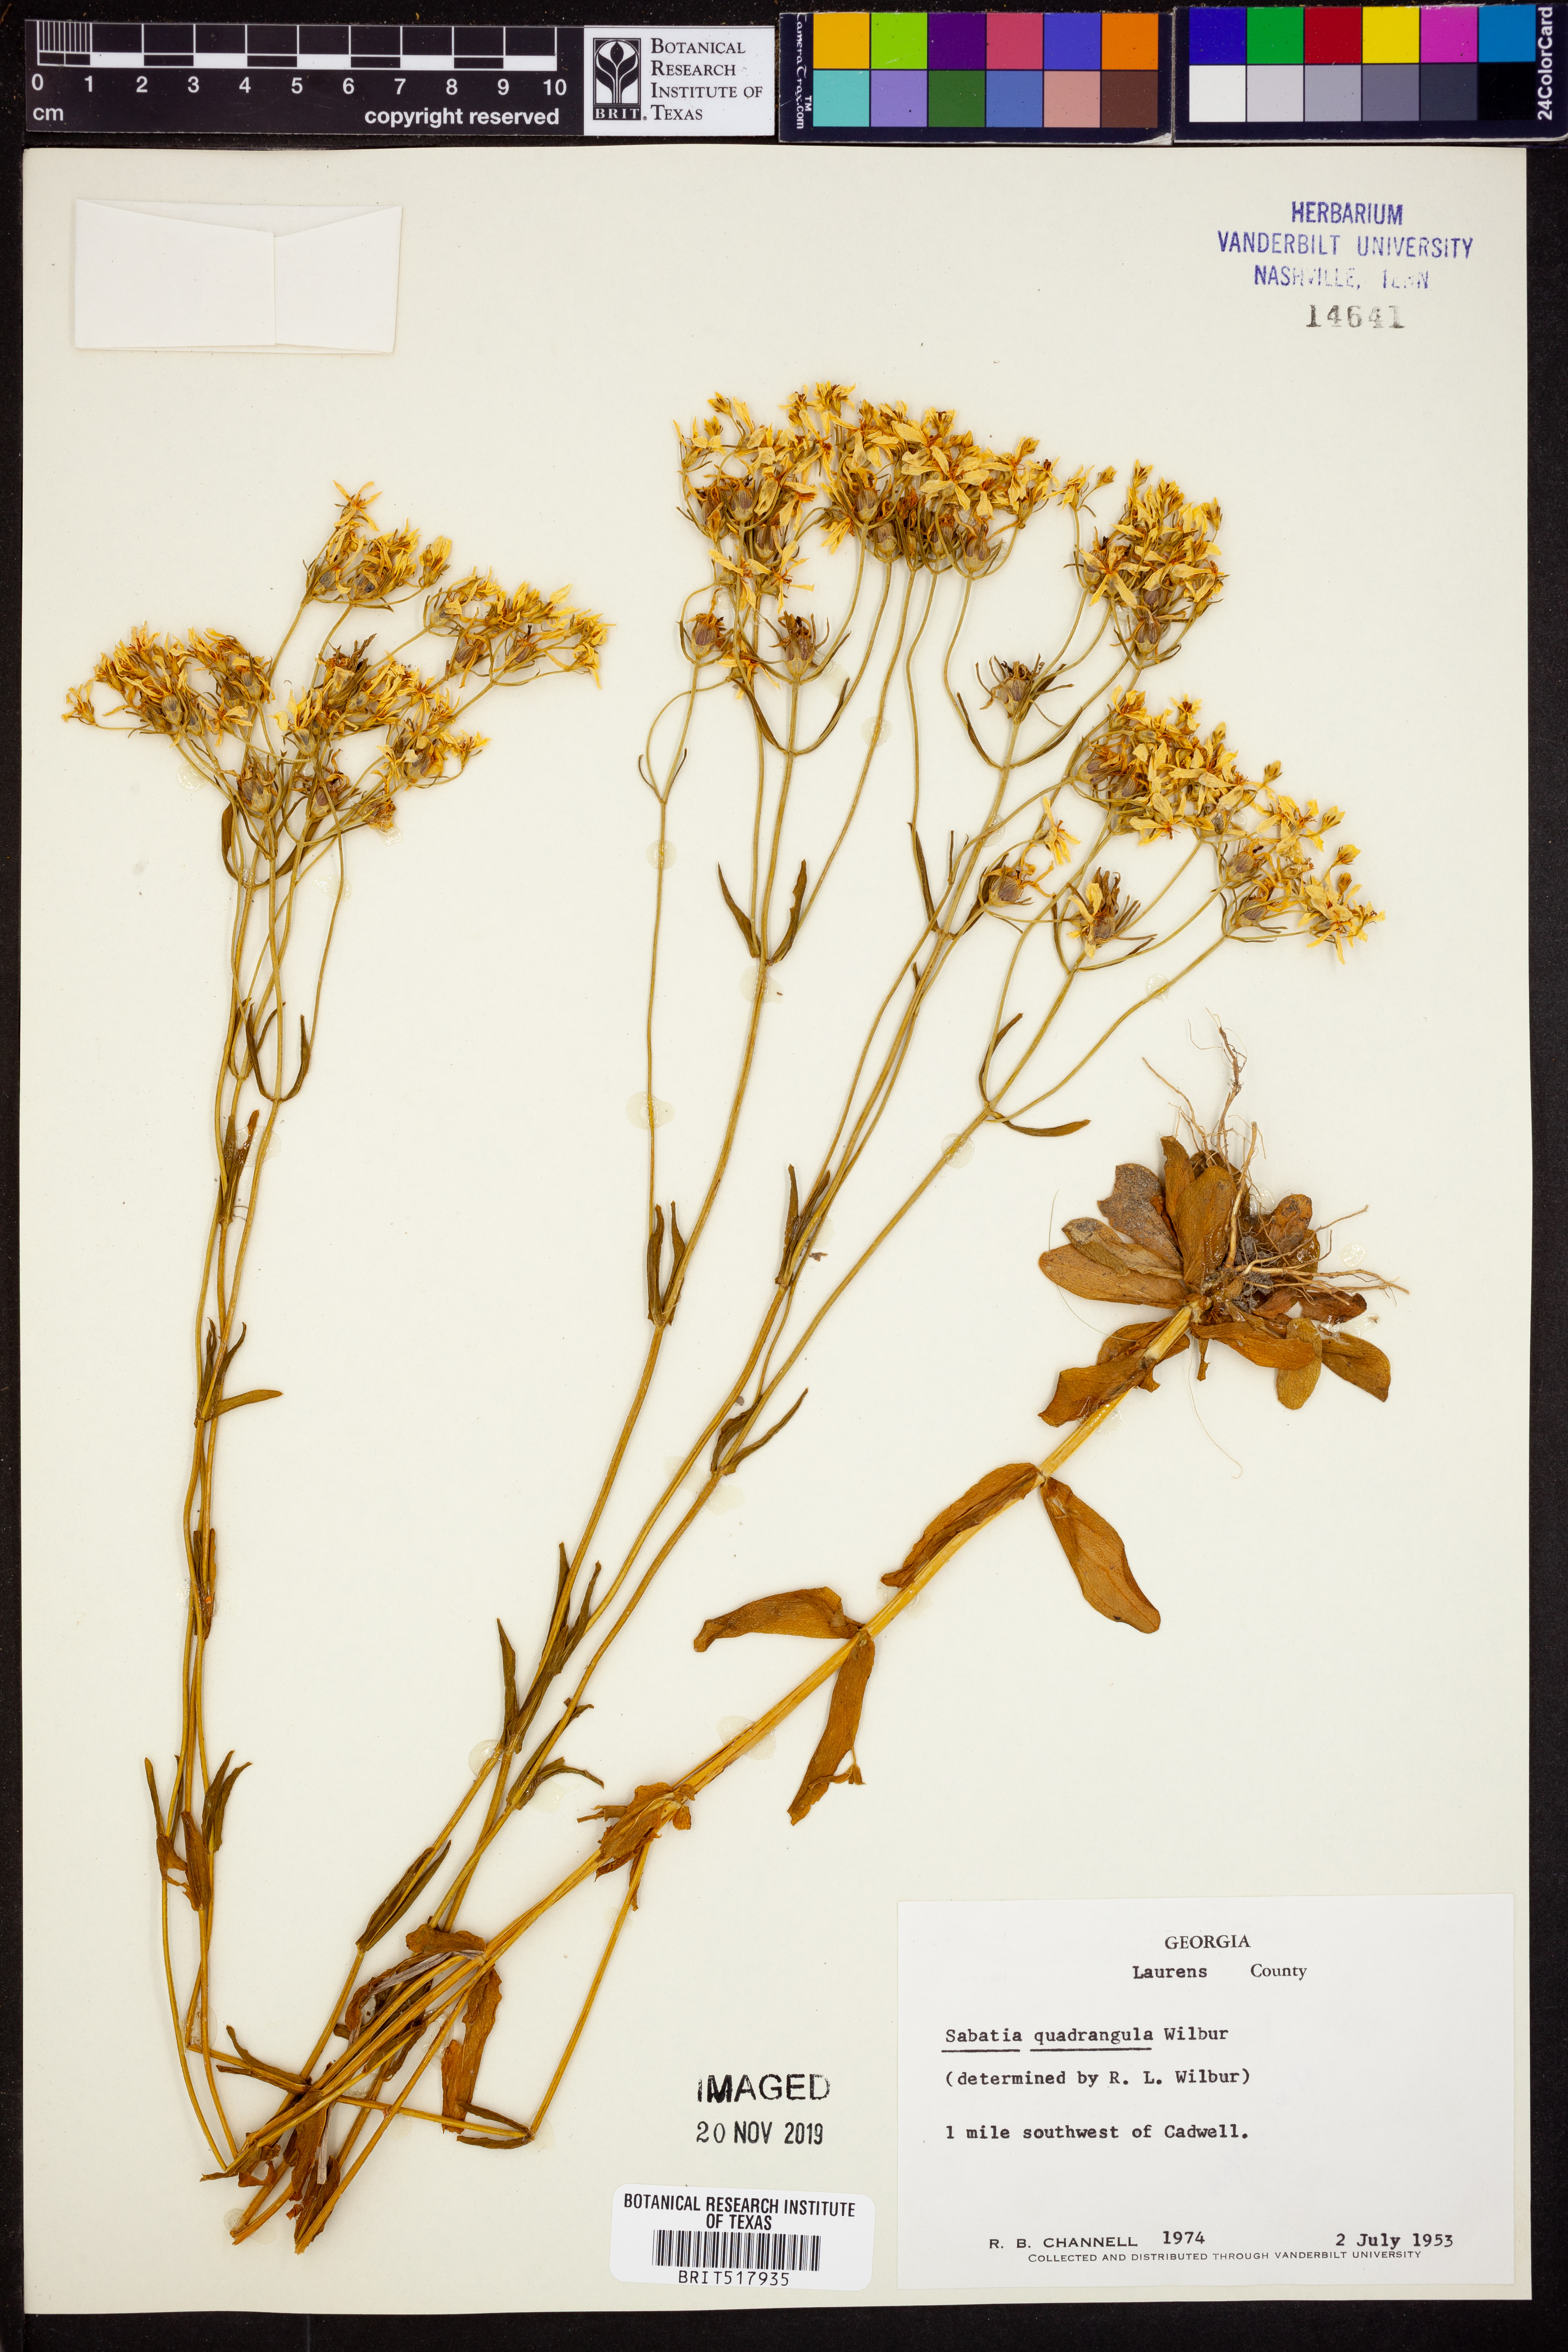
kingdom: Plantae
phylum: Tracheophyta
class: Magnoliopsida
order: Gentianales
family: Gentianaceae
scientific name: Gentianaceae
